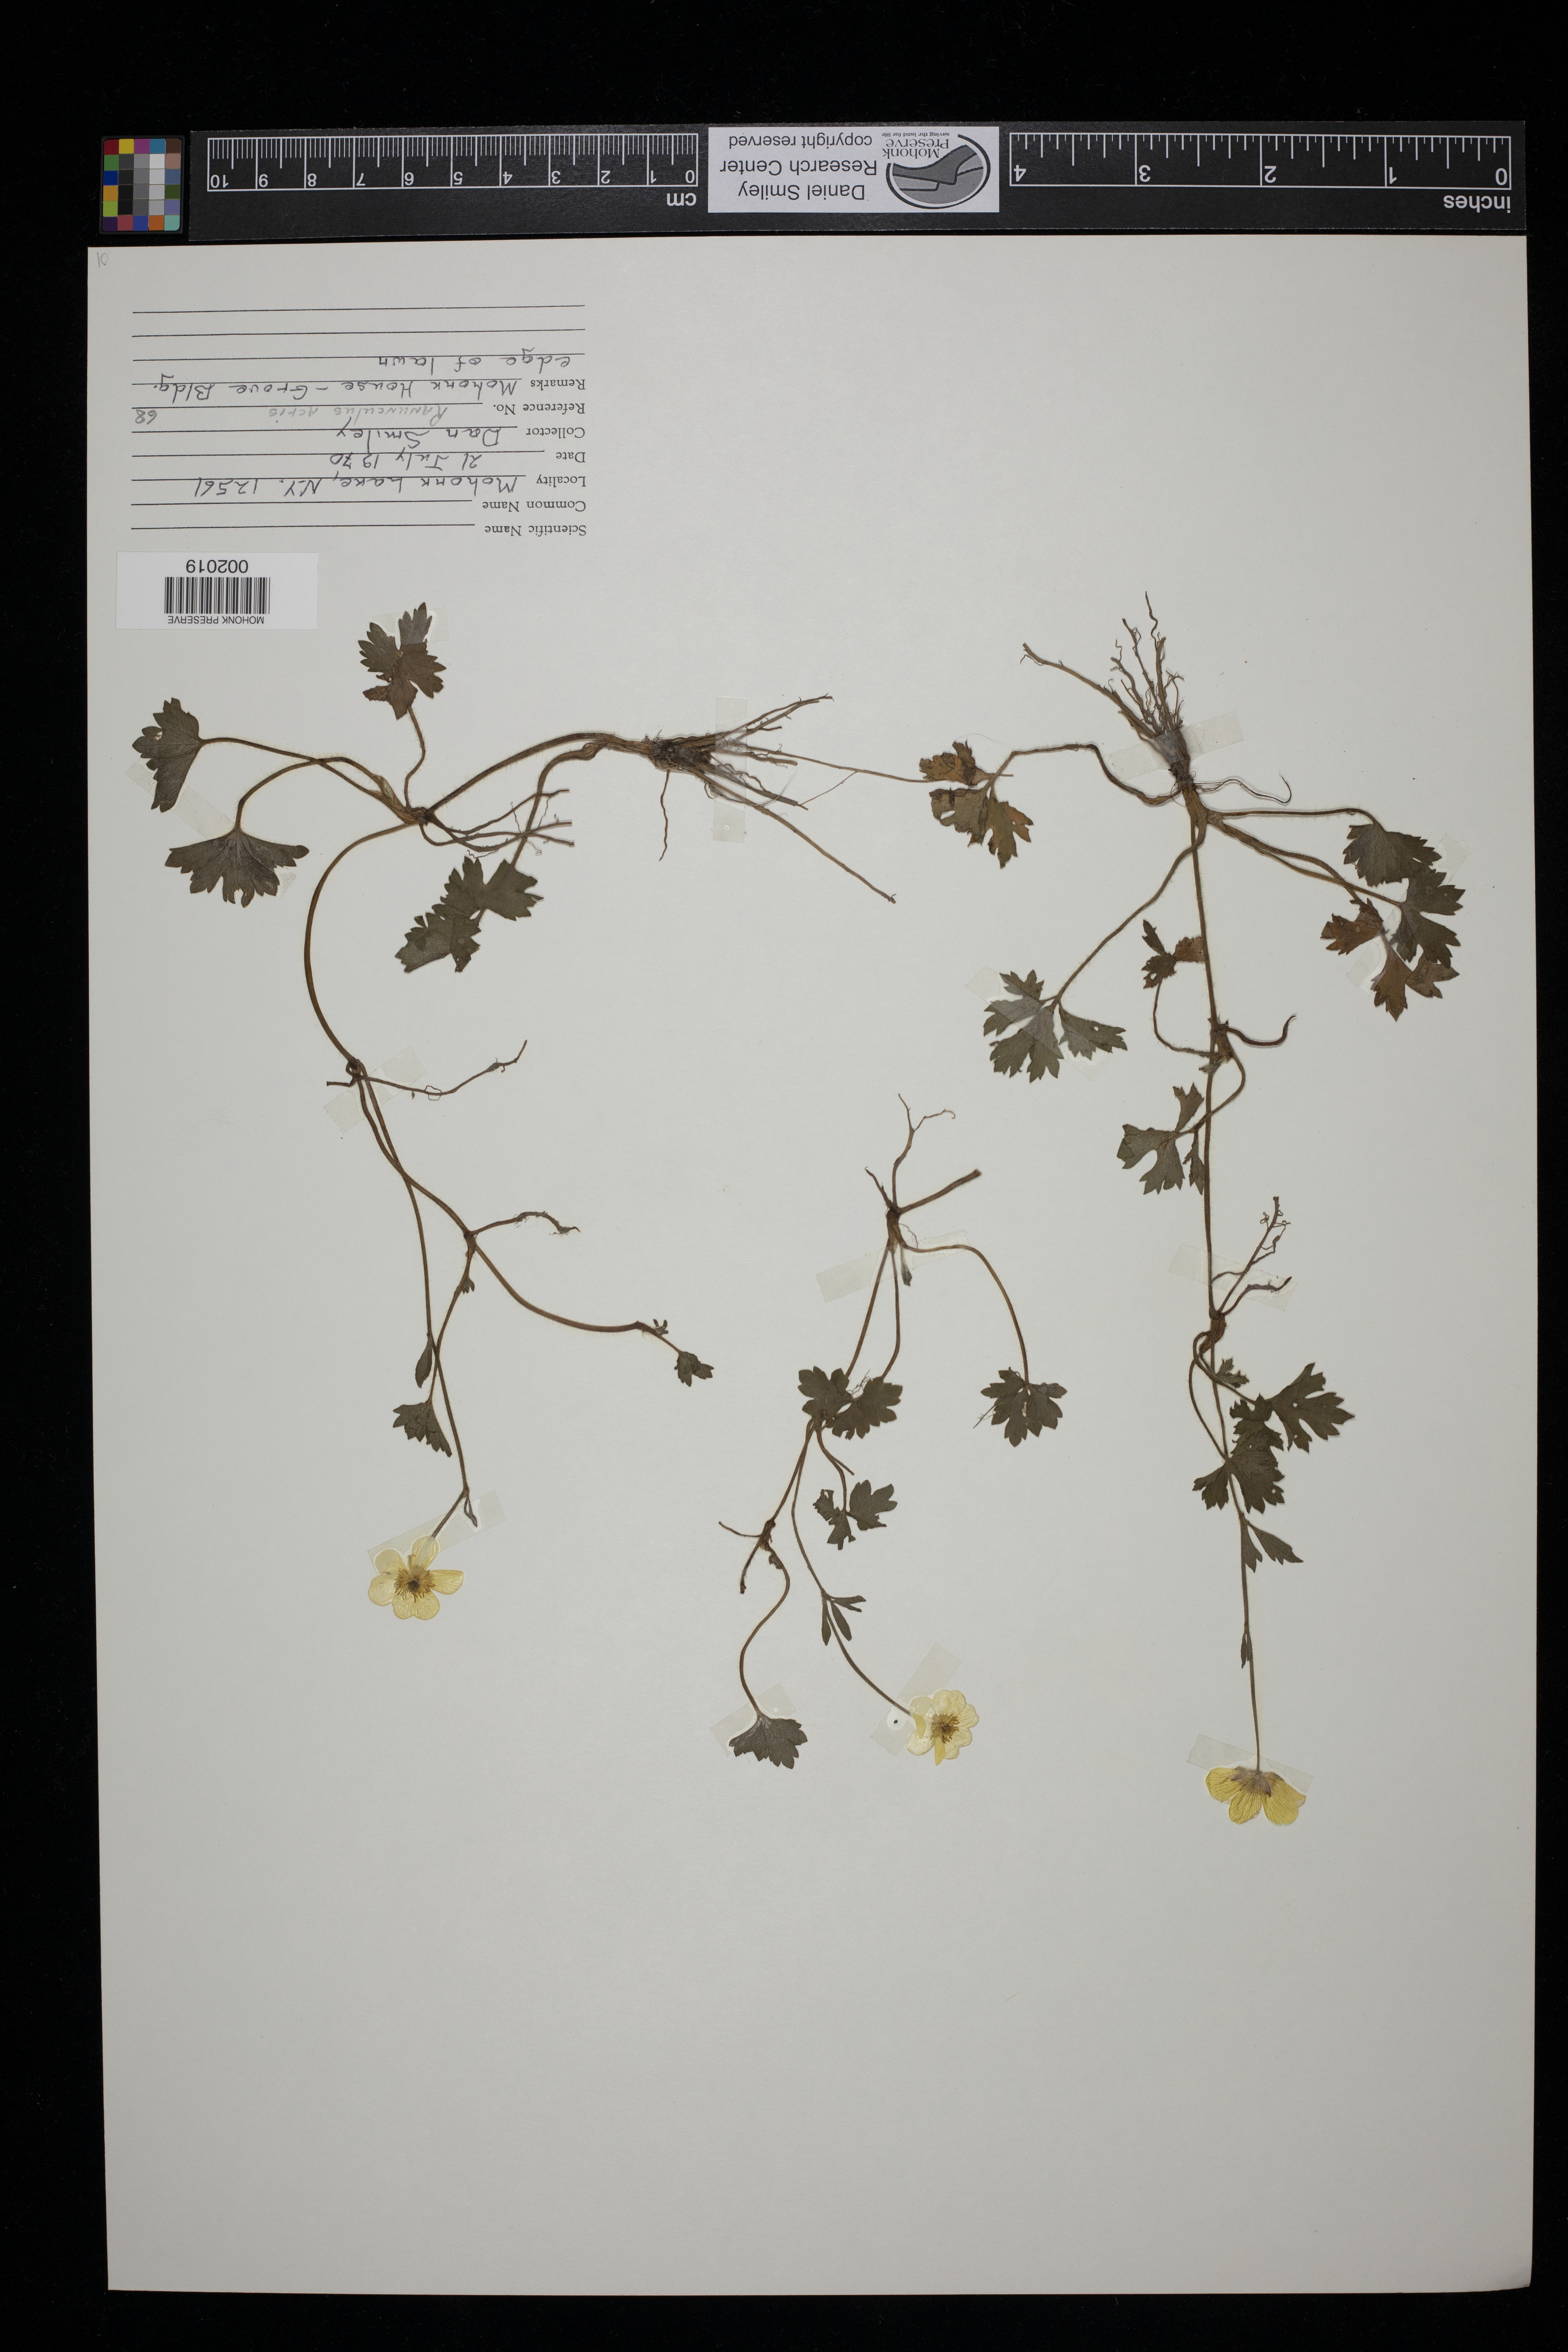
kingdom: Plantae
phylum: Tracheophyta
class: Magnoliopsida
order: Ranunculales
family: Ranunculaceae
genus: Ranunculus
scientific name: Ranunculus acris
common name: Meadow buttercup
